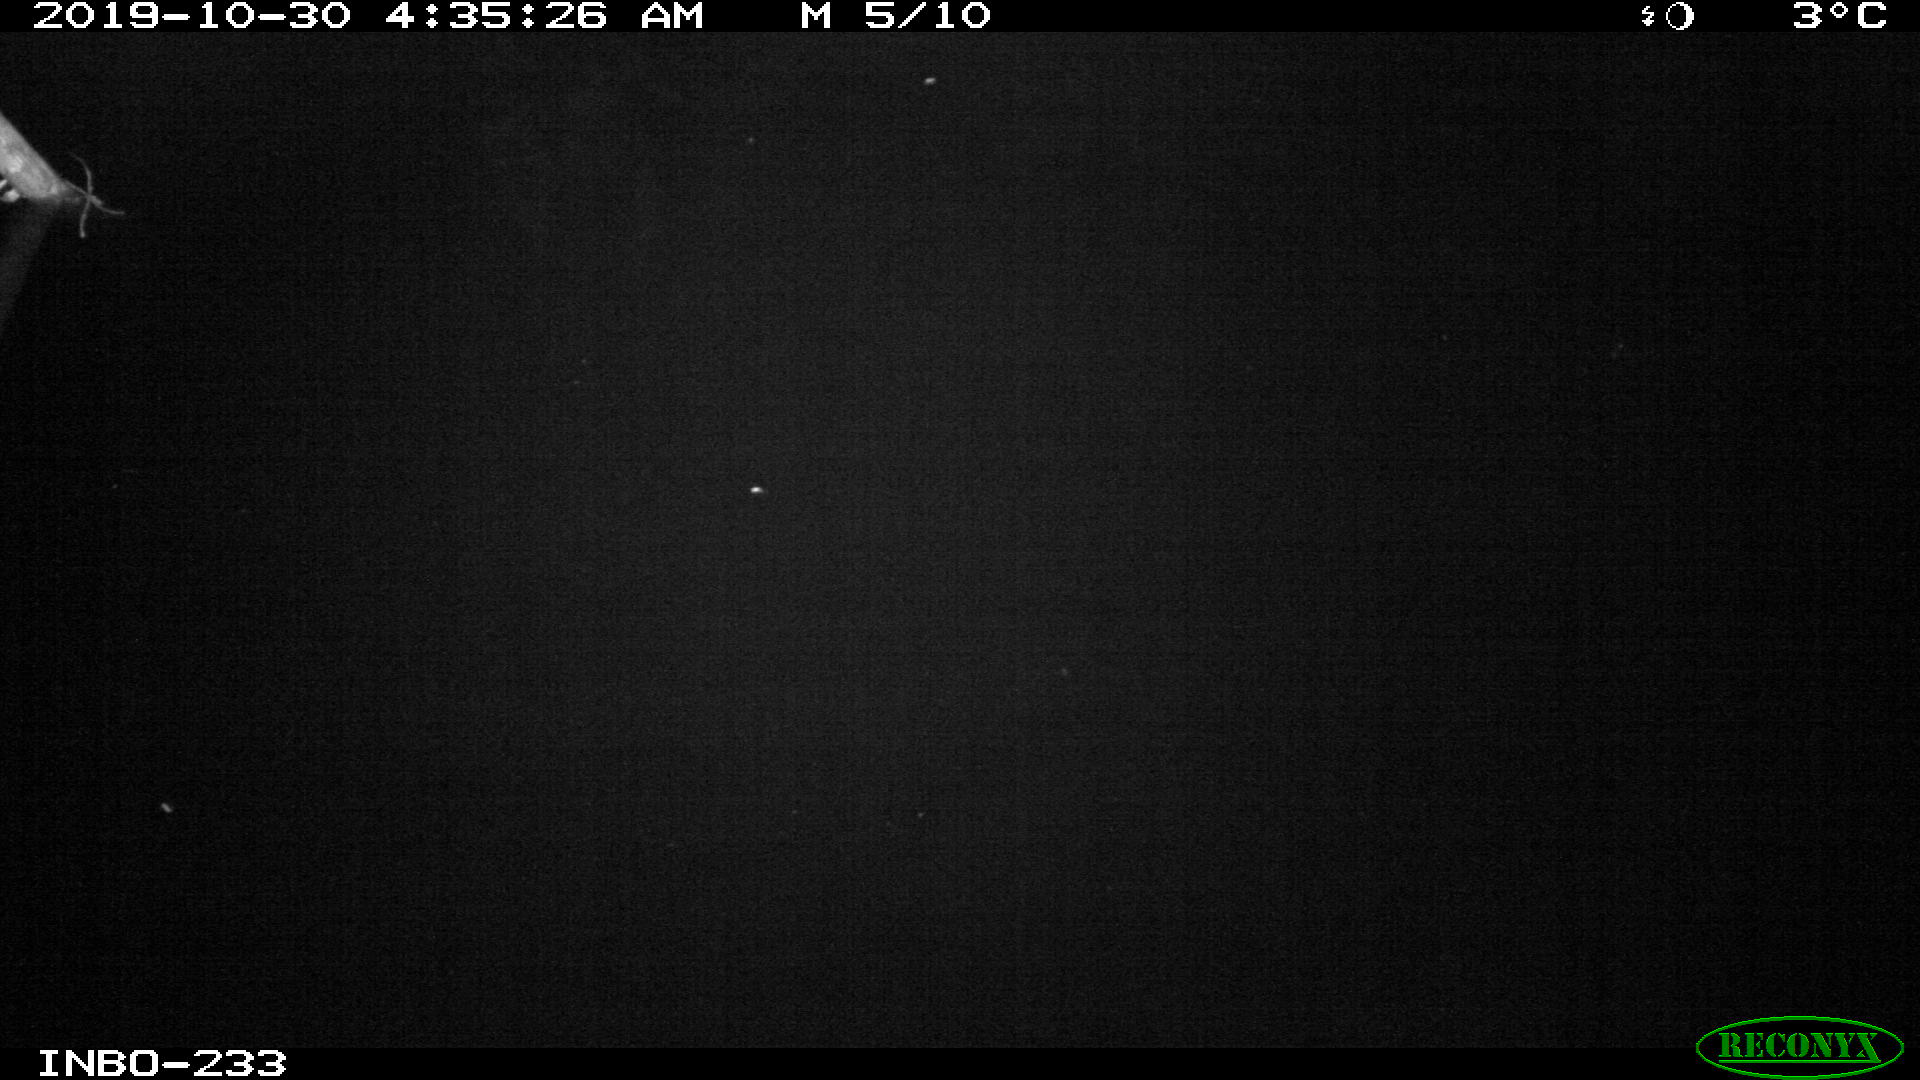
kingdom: Animalia
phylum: Chordata
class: Aves
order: Anseriformes
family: Anatidae
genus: Anas
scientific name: Anas platyrhynchos
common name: Mallard
